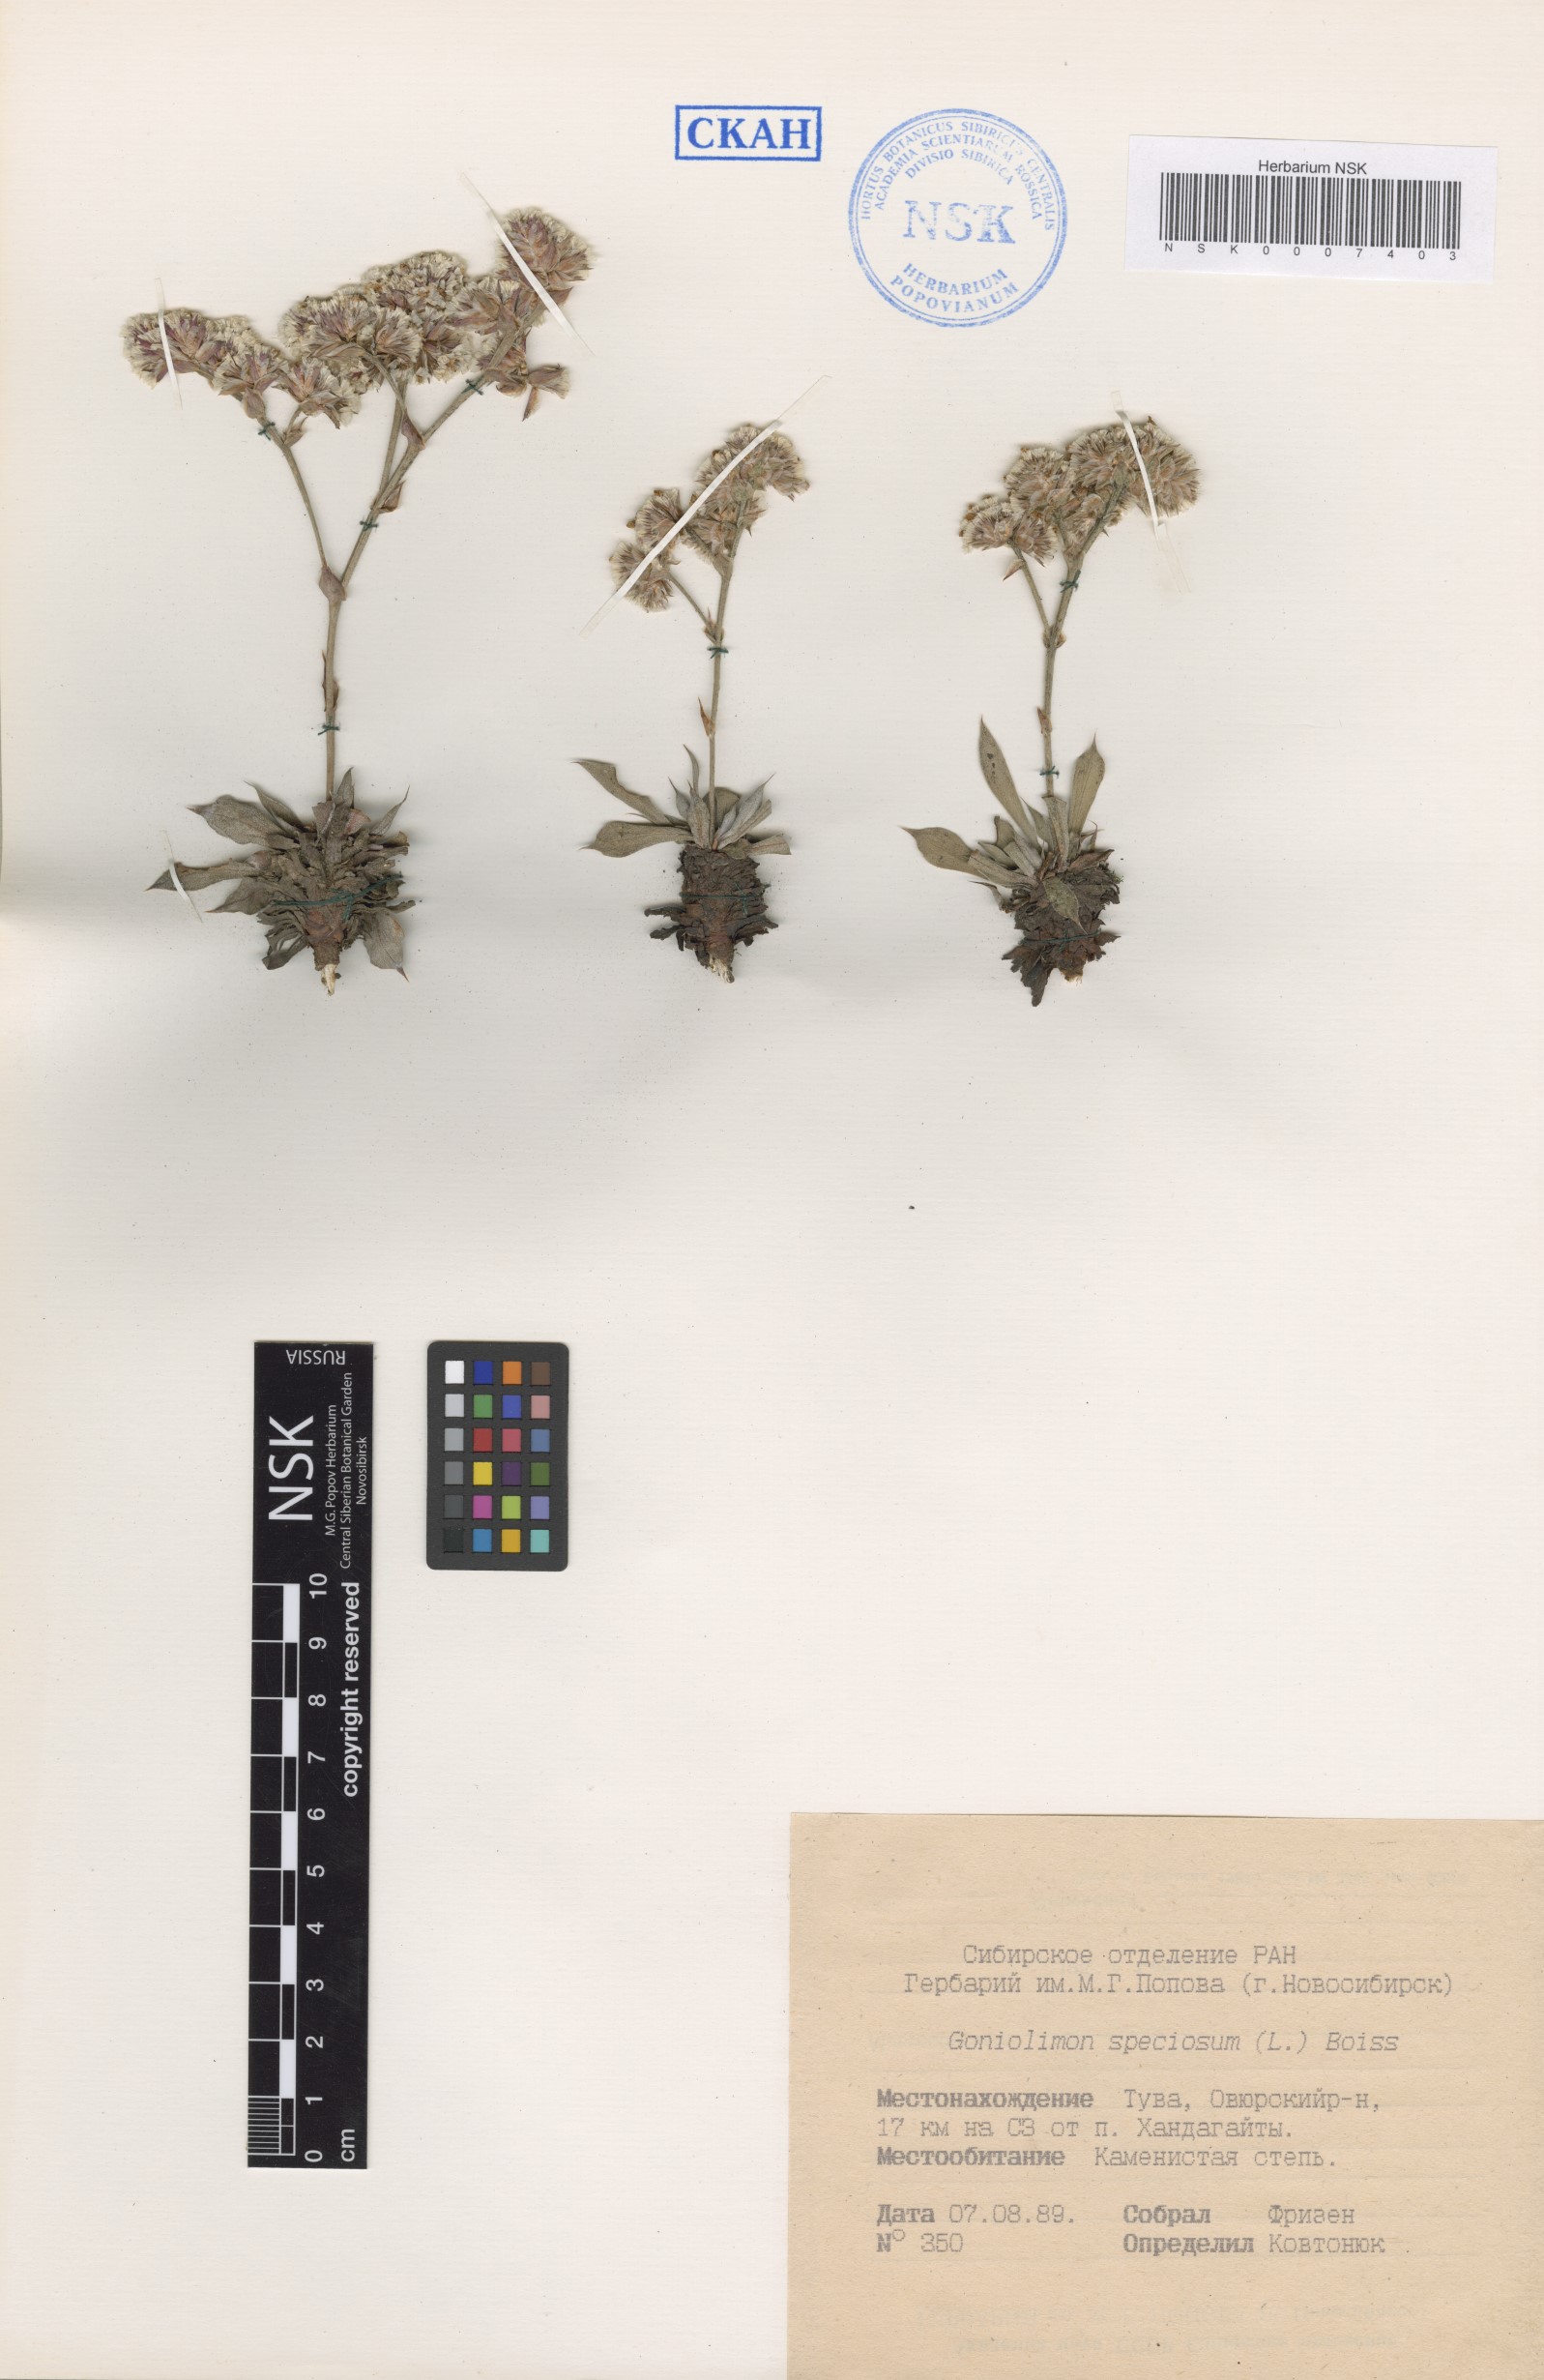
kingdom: Plantae
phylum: Tracheophyta
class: Magnoliopsida
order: Caryophyllales
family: Plumbaginaceae
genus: Goniolimon
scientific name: Goniolimon speciosum
